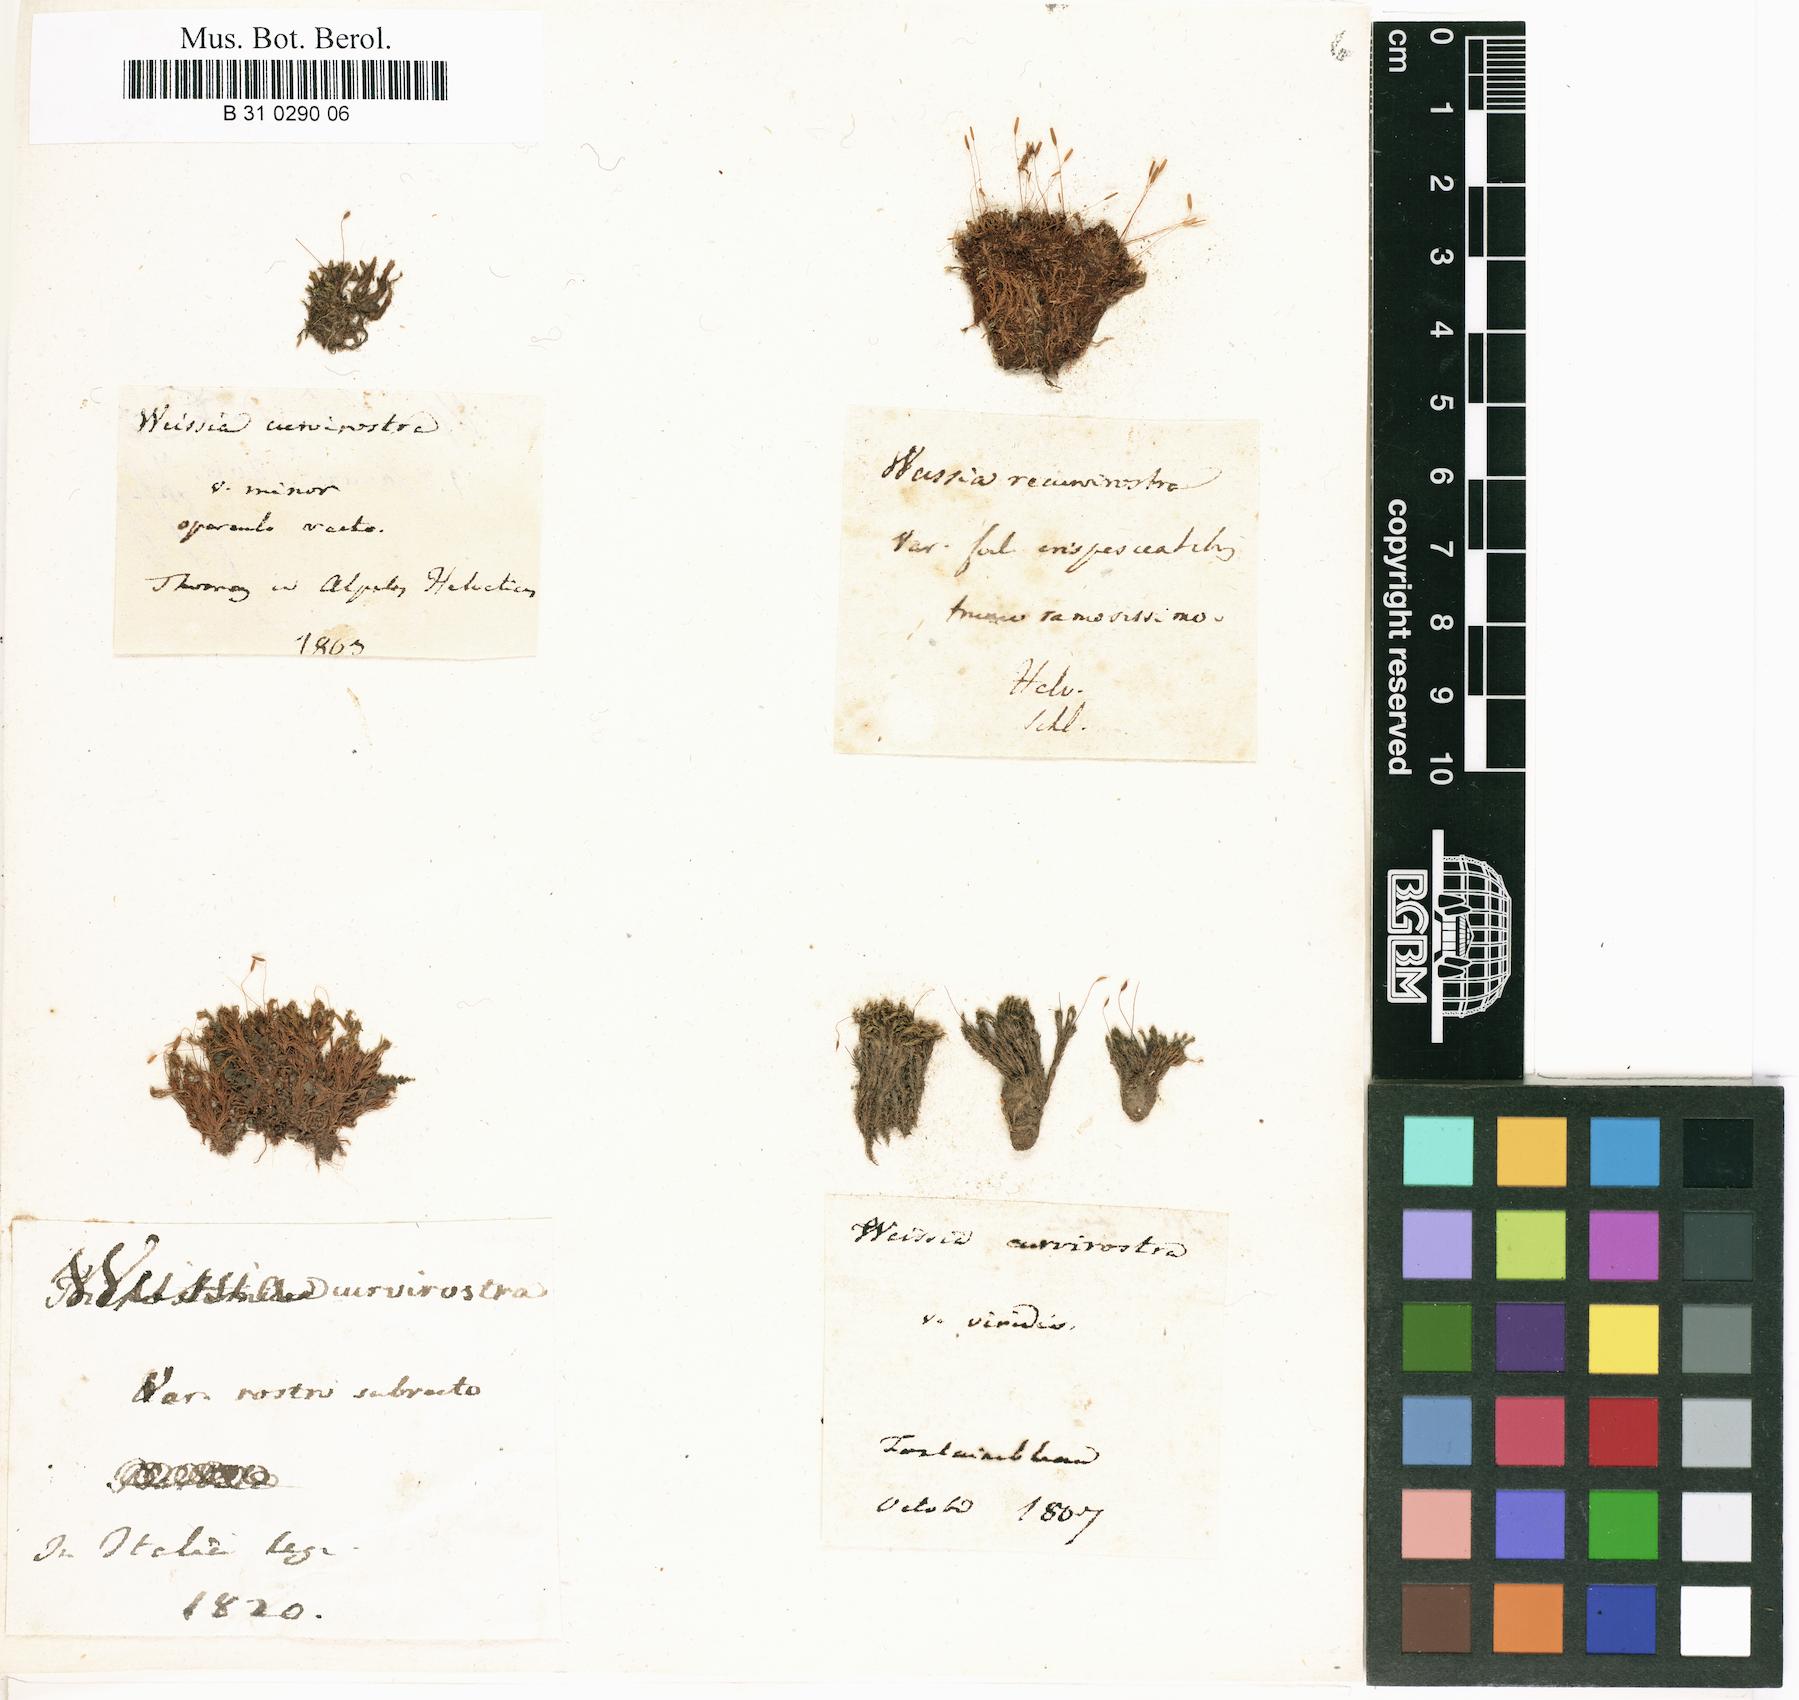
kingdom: Plantae
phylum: Bryophyta
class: Bryopsida
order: Pottiales
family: Pottiaceae
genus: Bryoerythrophyllum
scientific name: Bryoerythrophyllum recurvirostrum
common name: Red beard moss
